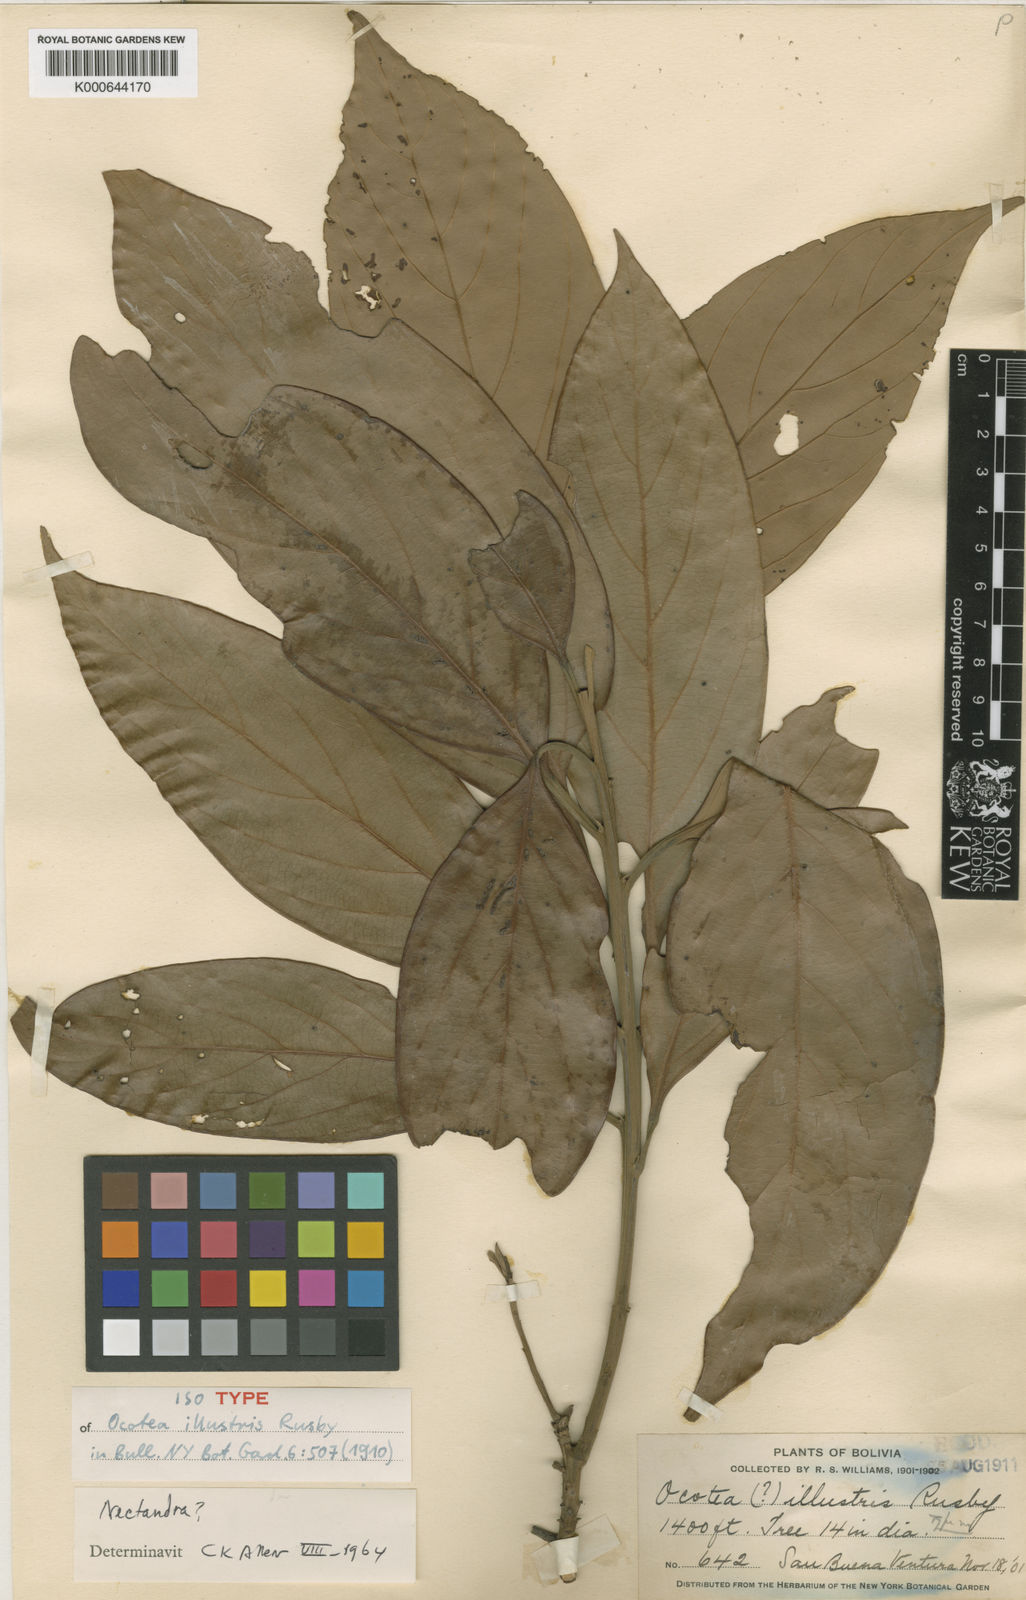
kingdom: Plantae
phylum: Tracheophyta
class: Magnoliopsida
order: Laurales
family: Lauraceae
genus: Ocotea
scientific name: Ocotea illustris
